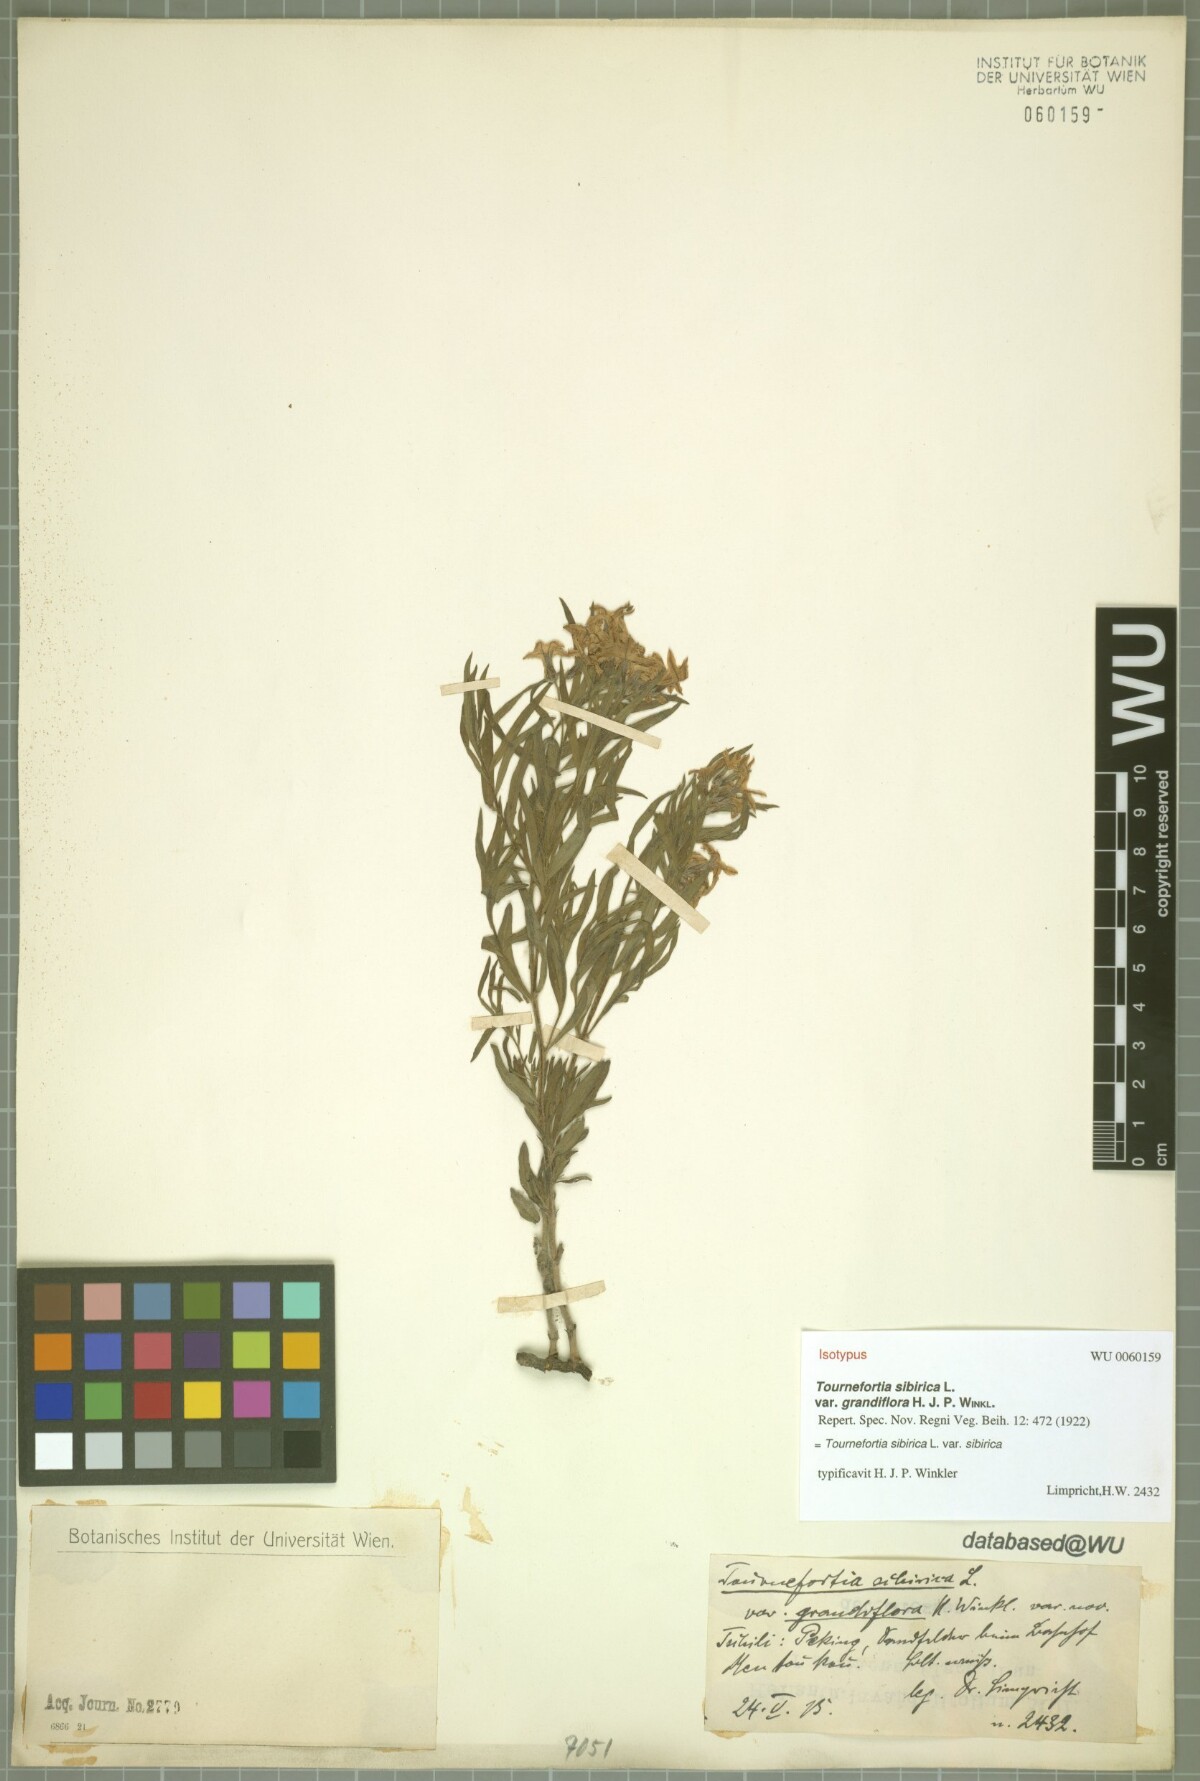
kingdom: Plantae
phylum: Tracheophyta
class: Magnoliopsida
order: Boraginales
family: Heliotropiaceae
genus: Tournefortia
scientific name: Tournefortia sibirica
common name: Siberian sea rosemary
